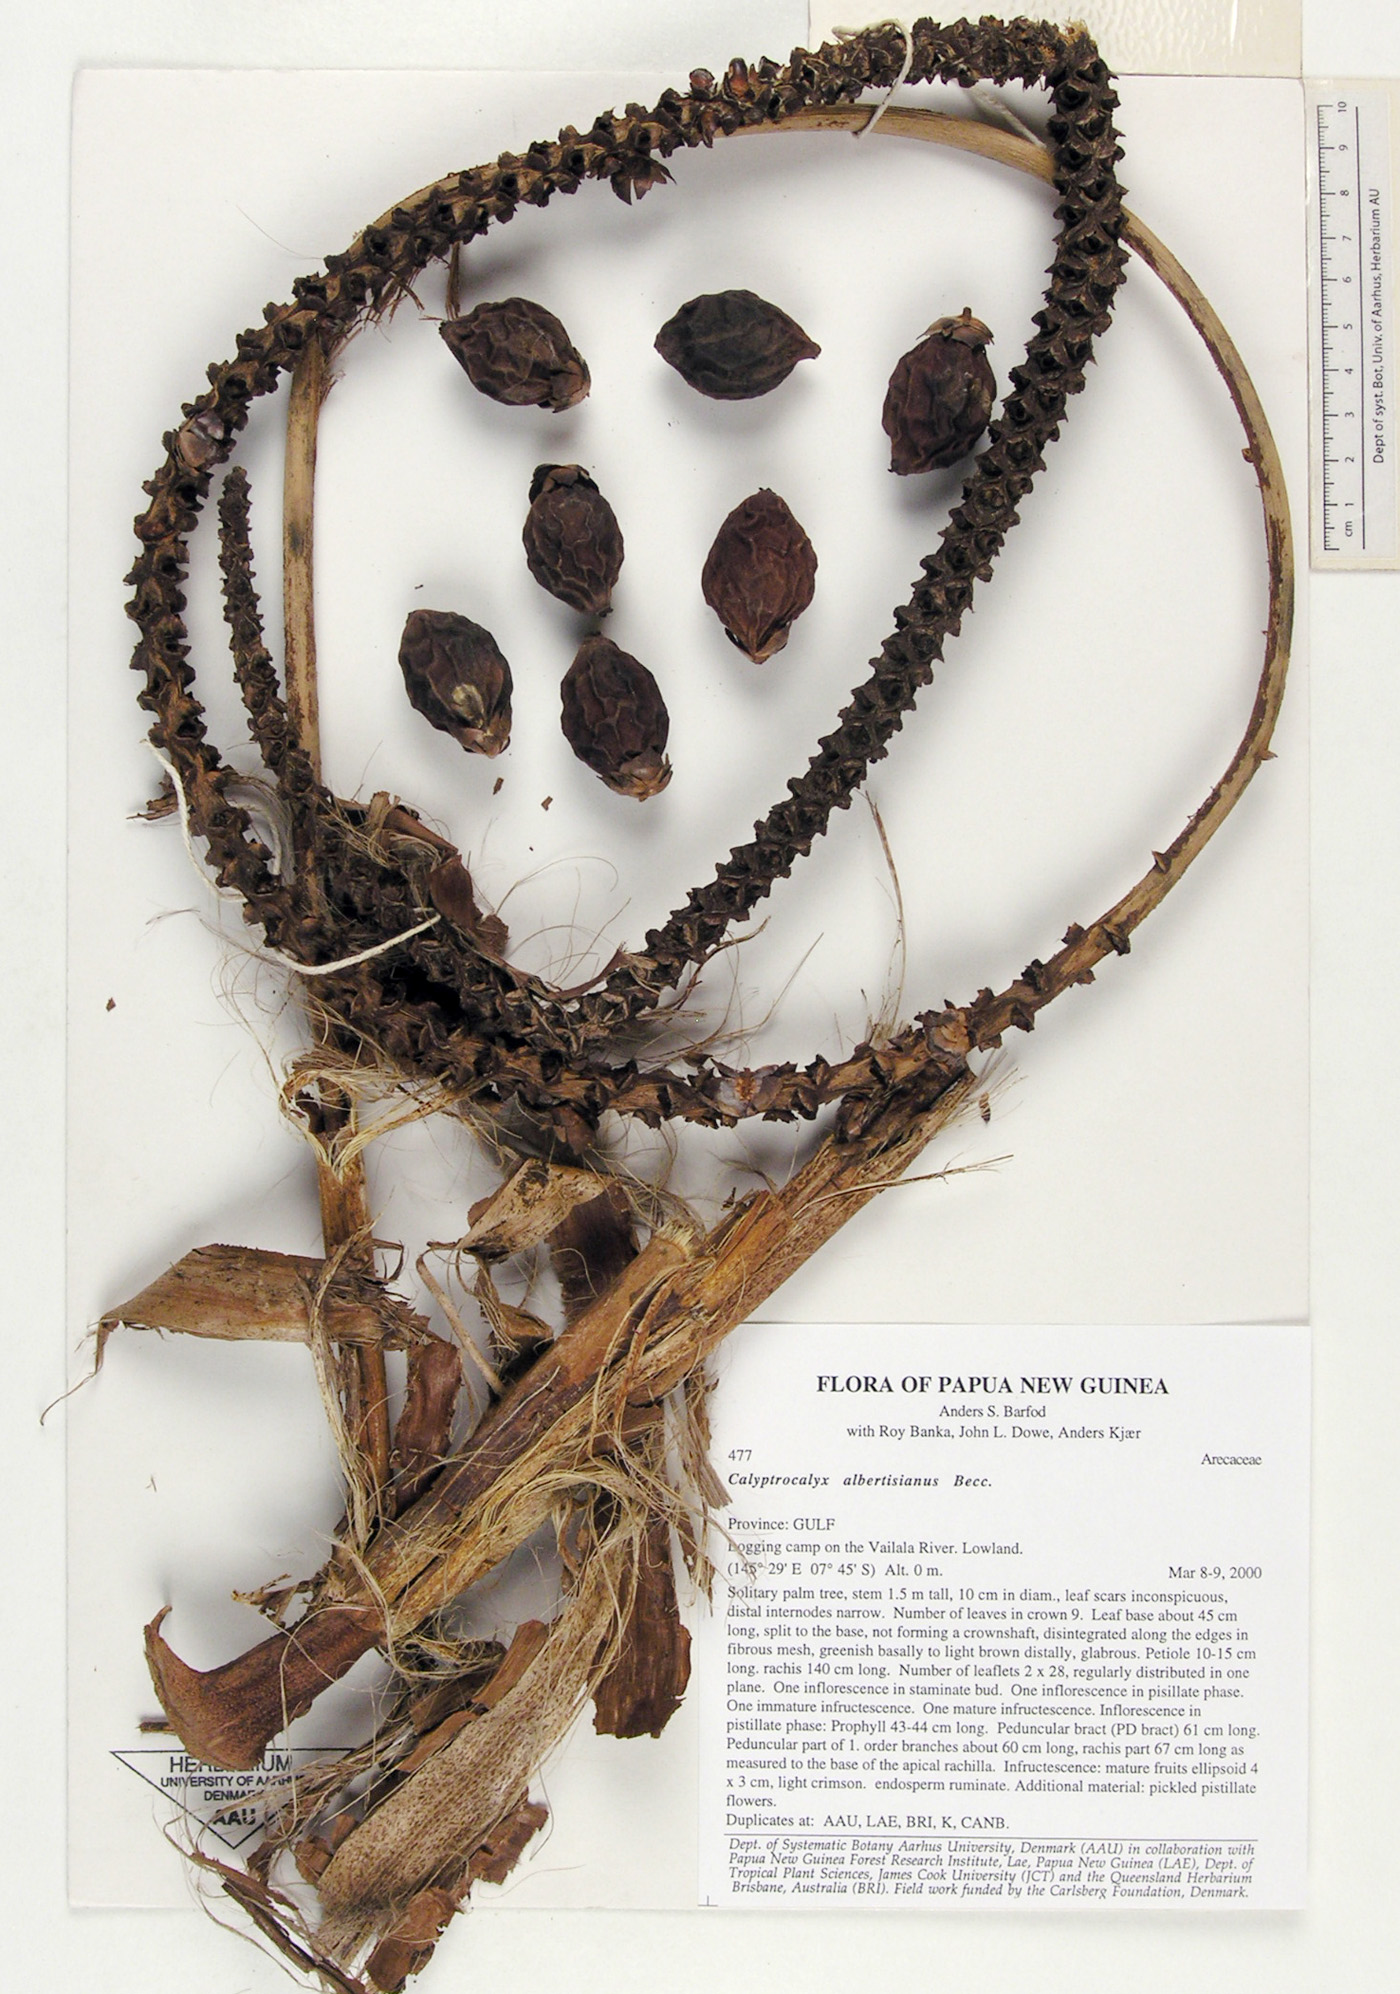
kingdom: Plantae
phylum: Tracheophyta
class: Liliopsida
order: Arecales
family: Arecaceae
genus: Calyptrocalyx
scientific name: Calyptrocalyx albertisianus
